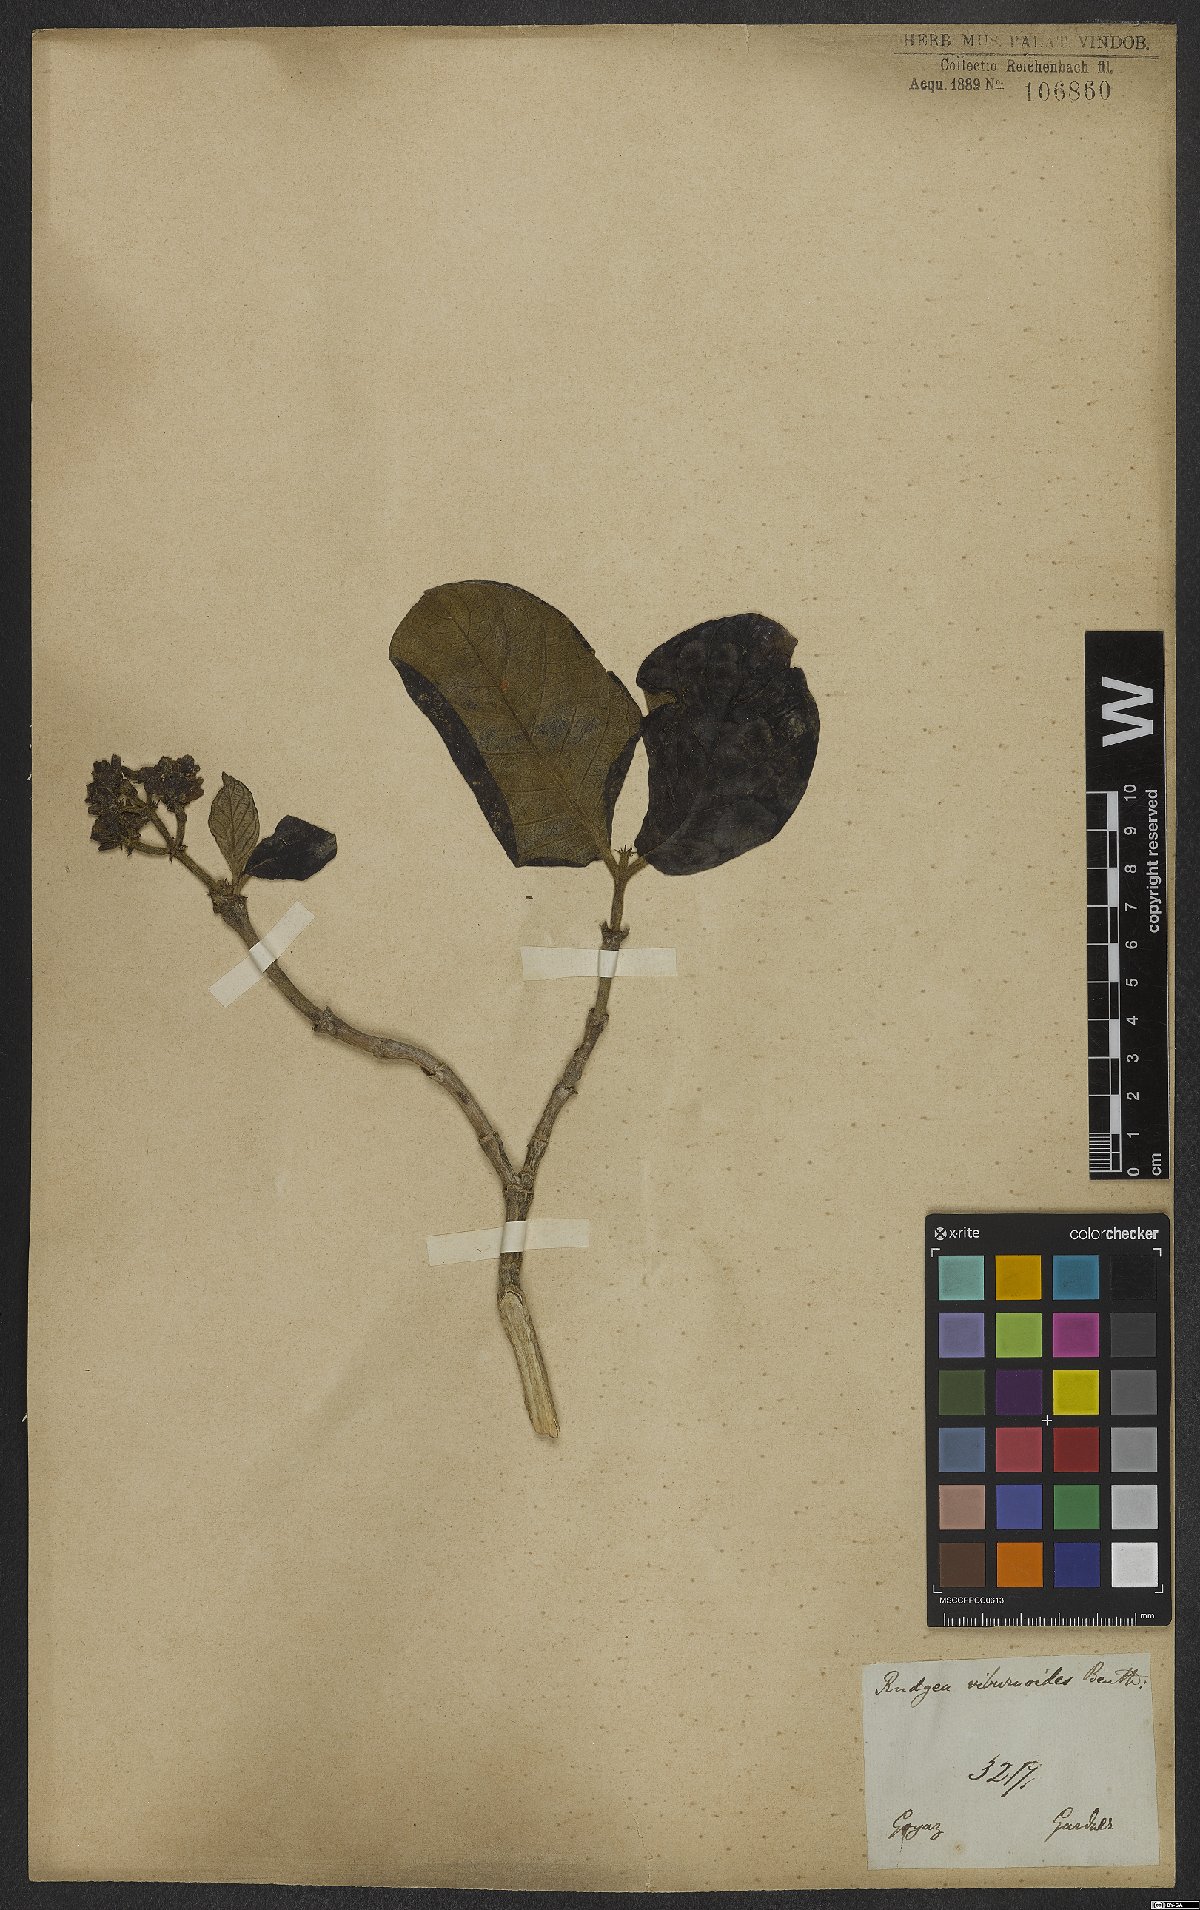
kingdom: Plantae
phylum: Tracheophyta
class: Magnoliopsida
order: Gentianales
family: Rubiaceae
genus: Rudgea
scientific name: Rudgea viburnoides
